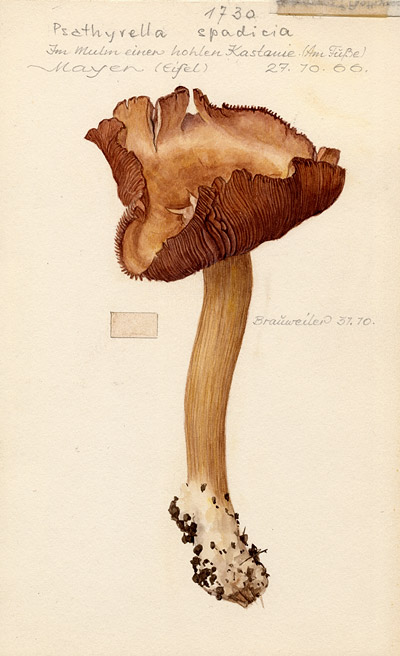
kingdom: Fungi
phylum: Basidiomycota
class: Agaricomycetes
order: Agaricales
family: Psathyrellaceae
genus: Homophron
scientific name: Homophron spadiceum
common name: Chestnut brittlestem
